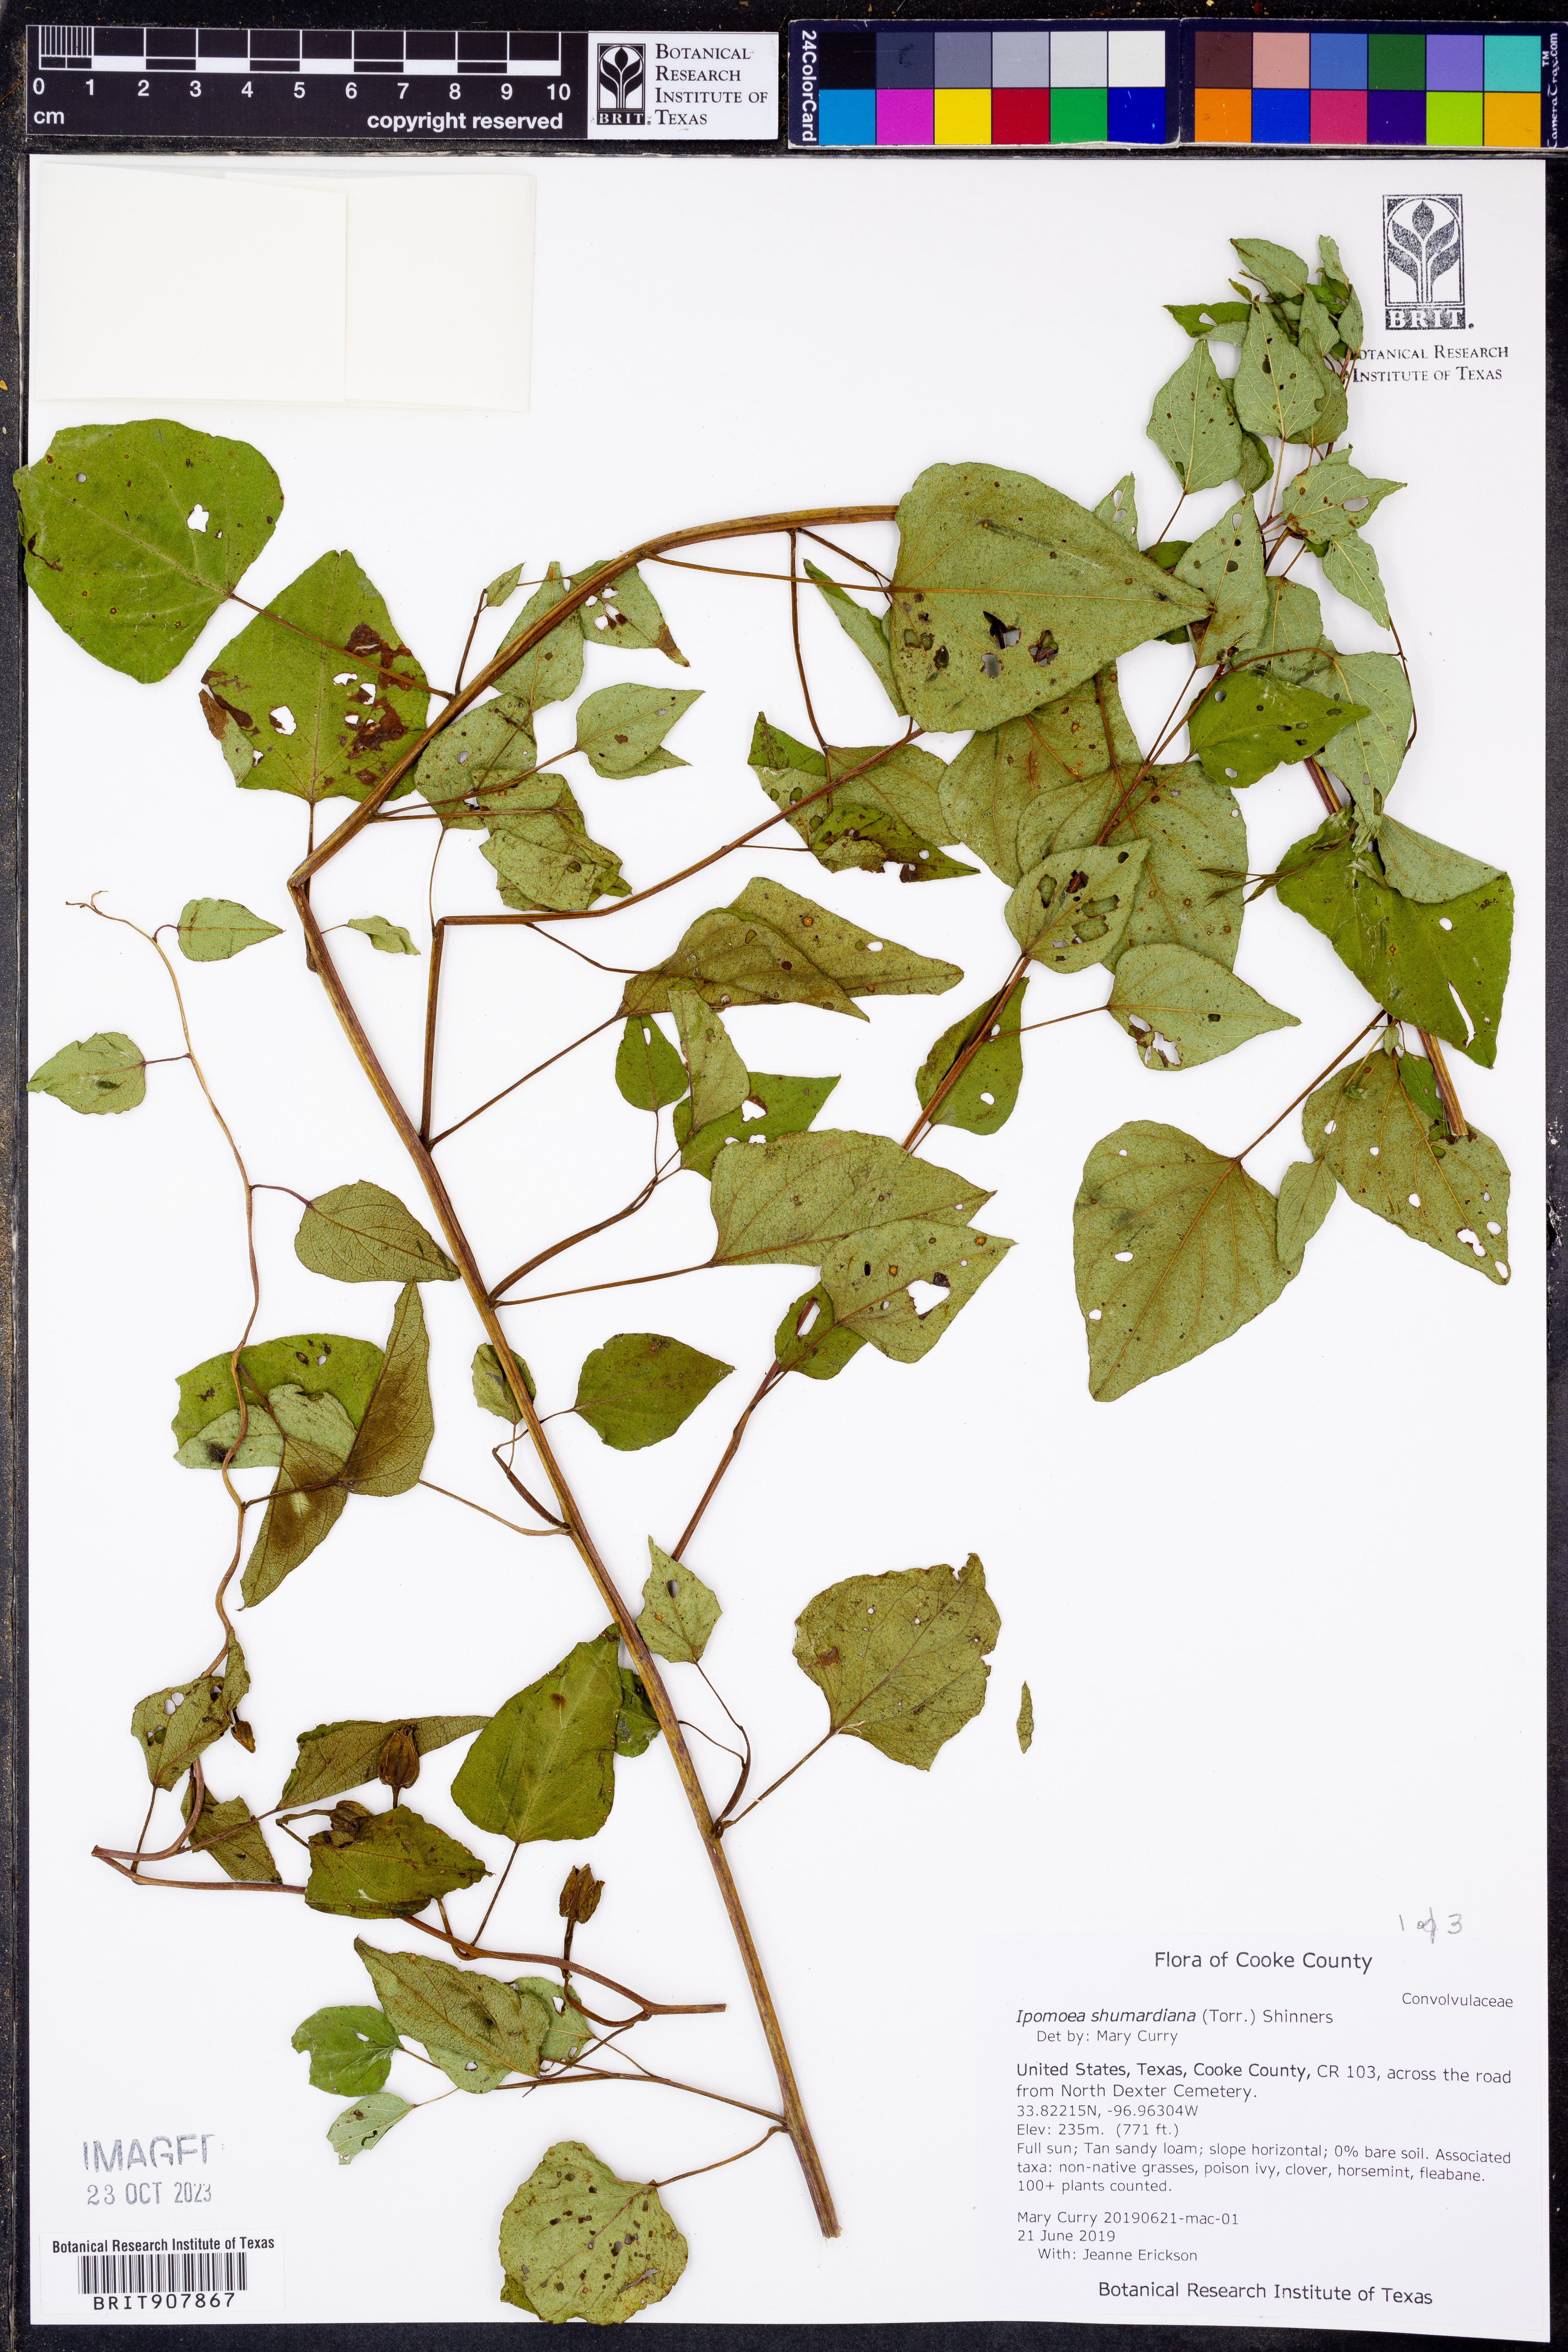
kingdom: Plantae
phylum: Tracheophyta
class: Magnoliopsida
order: Solanales
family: Convolvulaceae
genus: Ipomoea
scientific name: Ipomoea shumardiana
